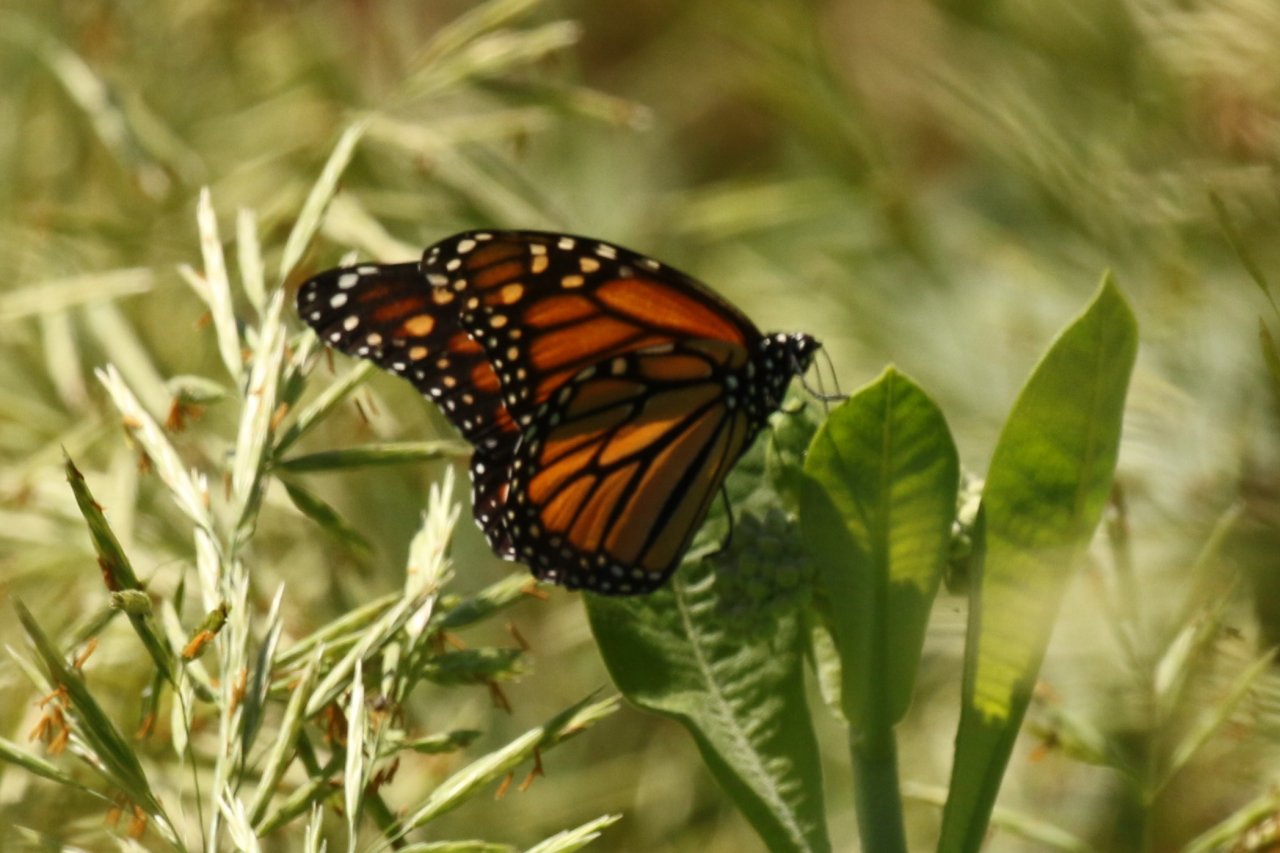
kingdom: Animalia
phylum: Arthropoda
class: Insecta
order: Lepidoptera
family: Nymphalidae
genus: Danaus
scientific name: Danaus plexippus
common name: Monarch
